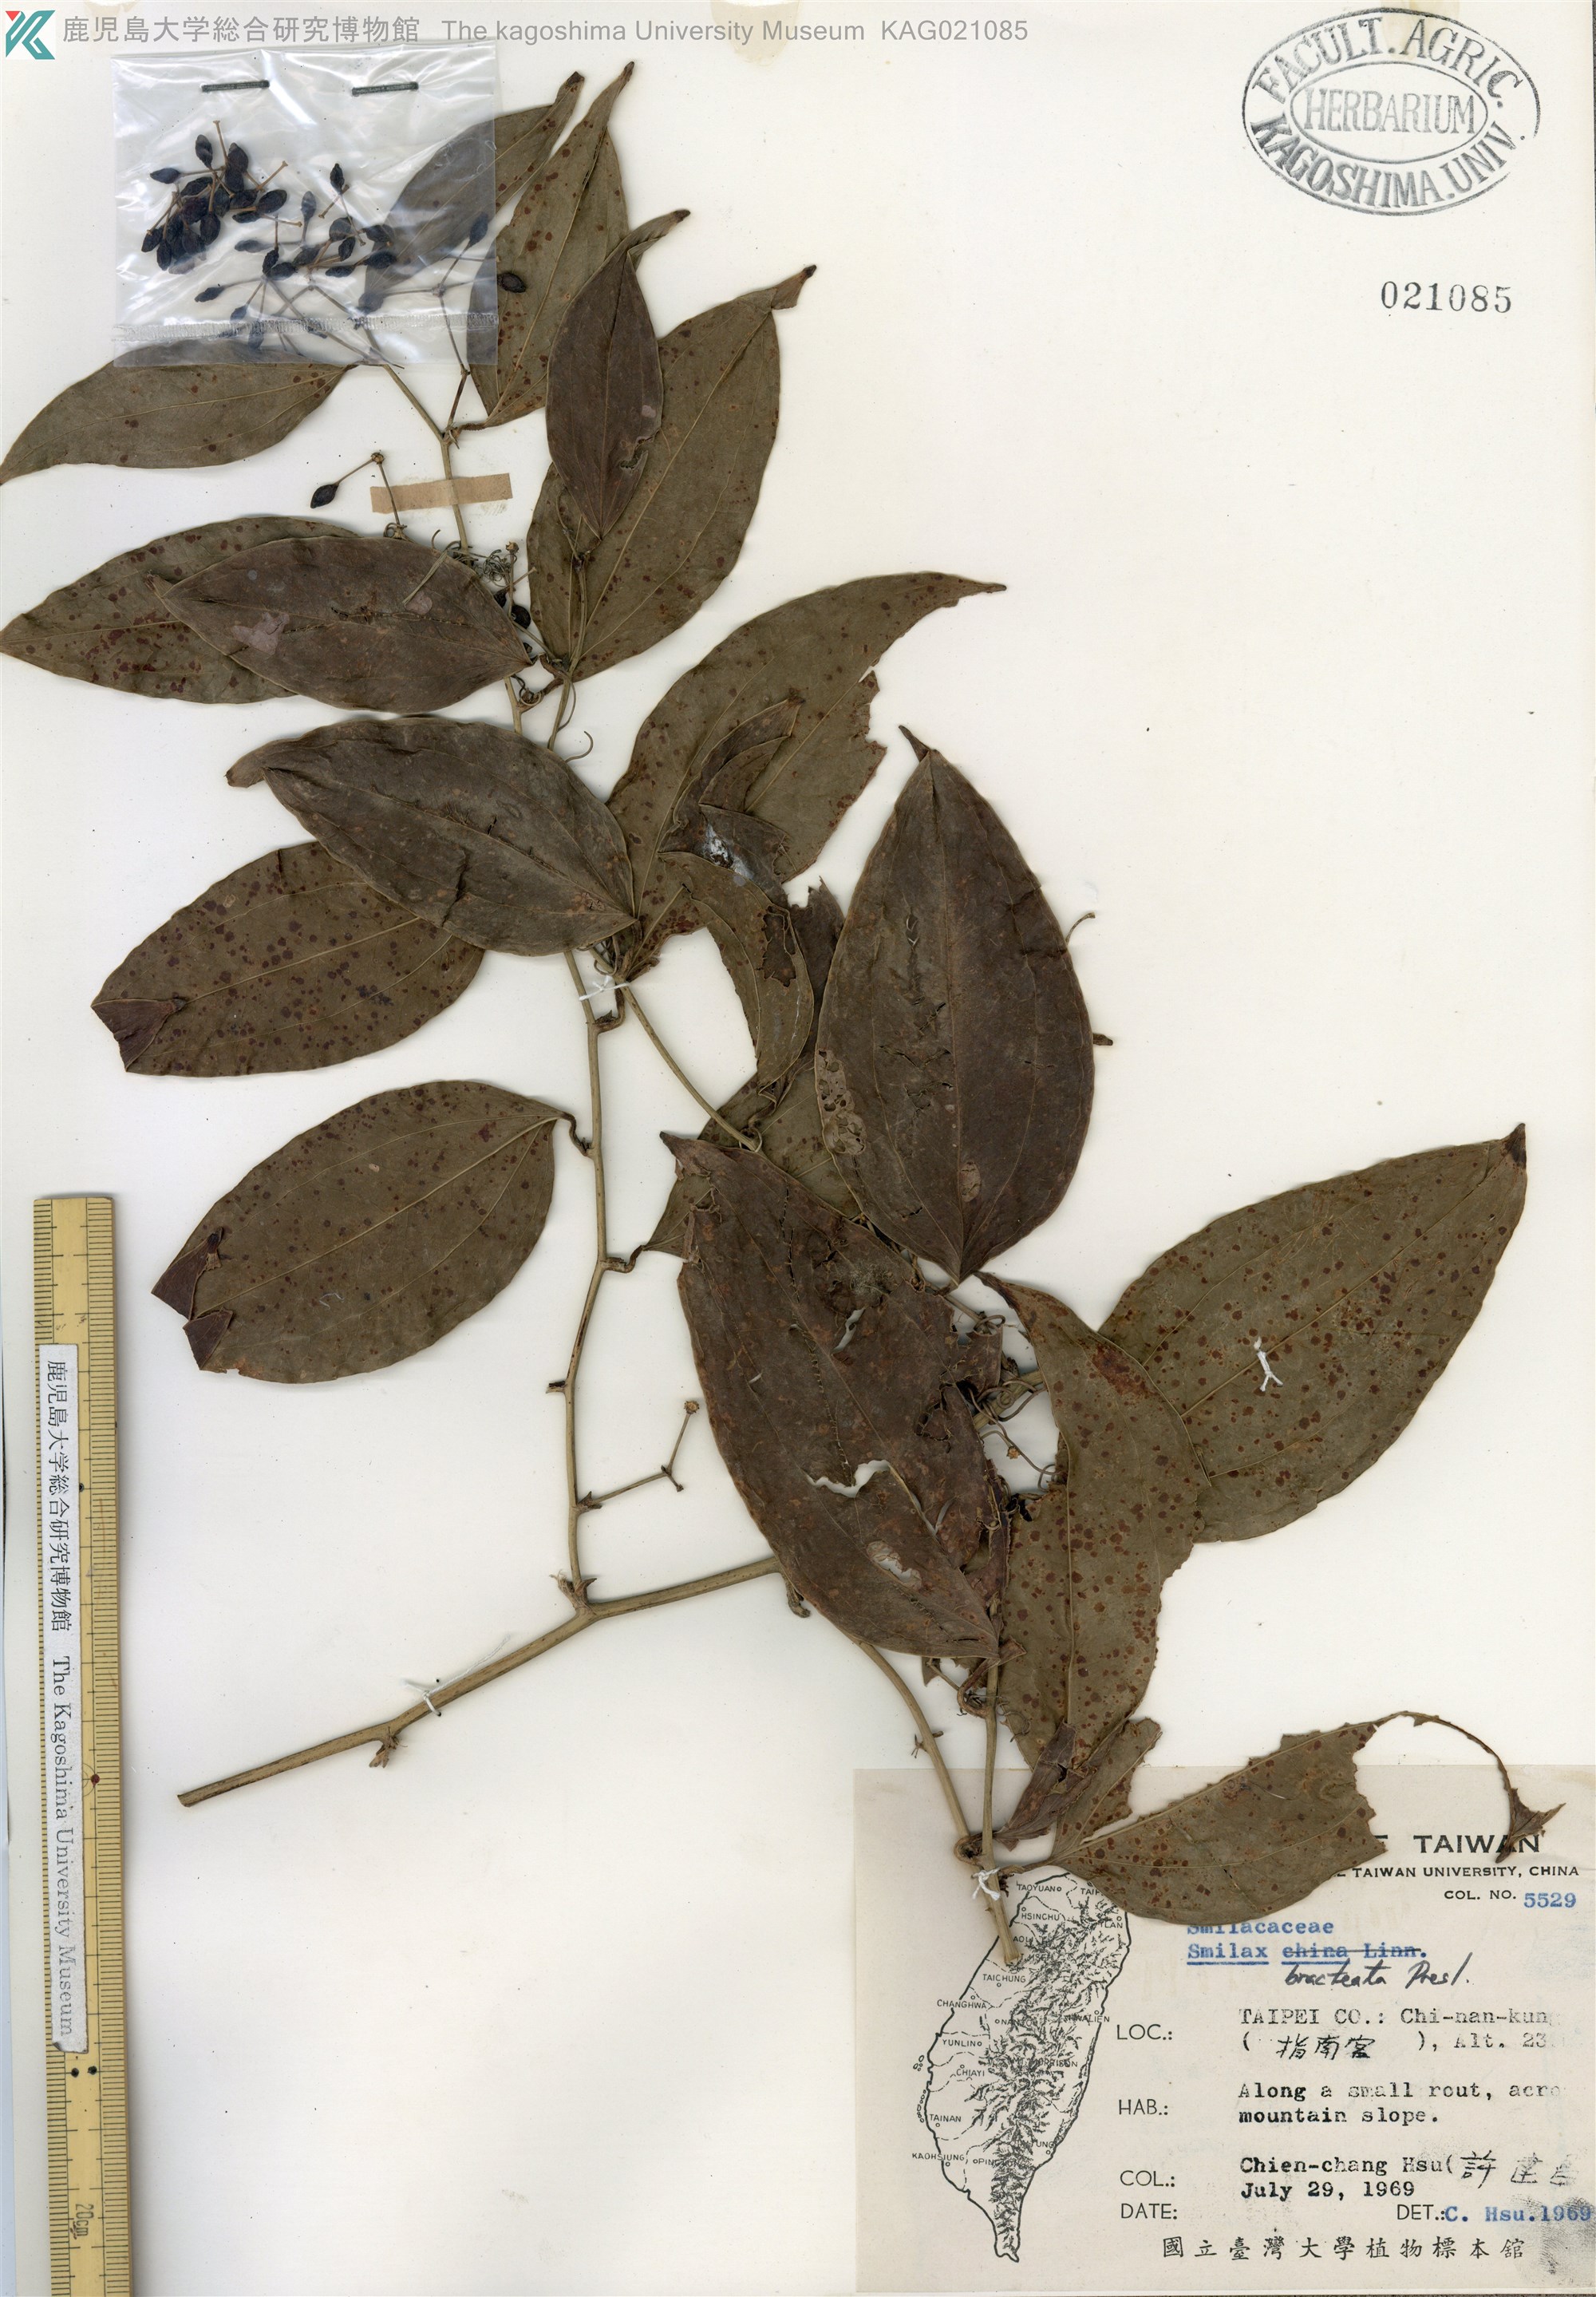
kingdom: Plantae
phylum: Tracheophyta
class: Liliopsida
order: Liliales
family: Smilacaceae
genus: Smilax
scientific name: Smilax bracteata
